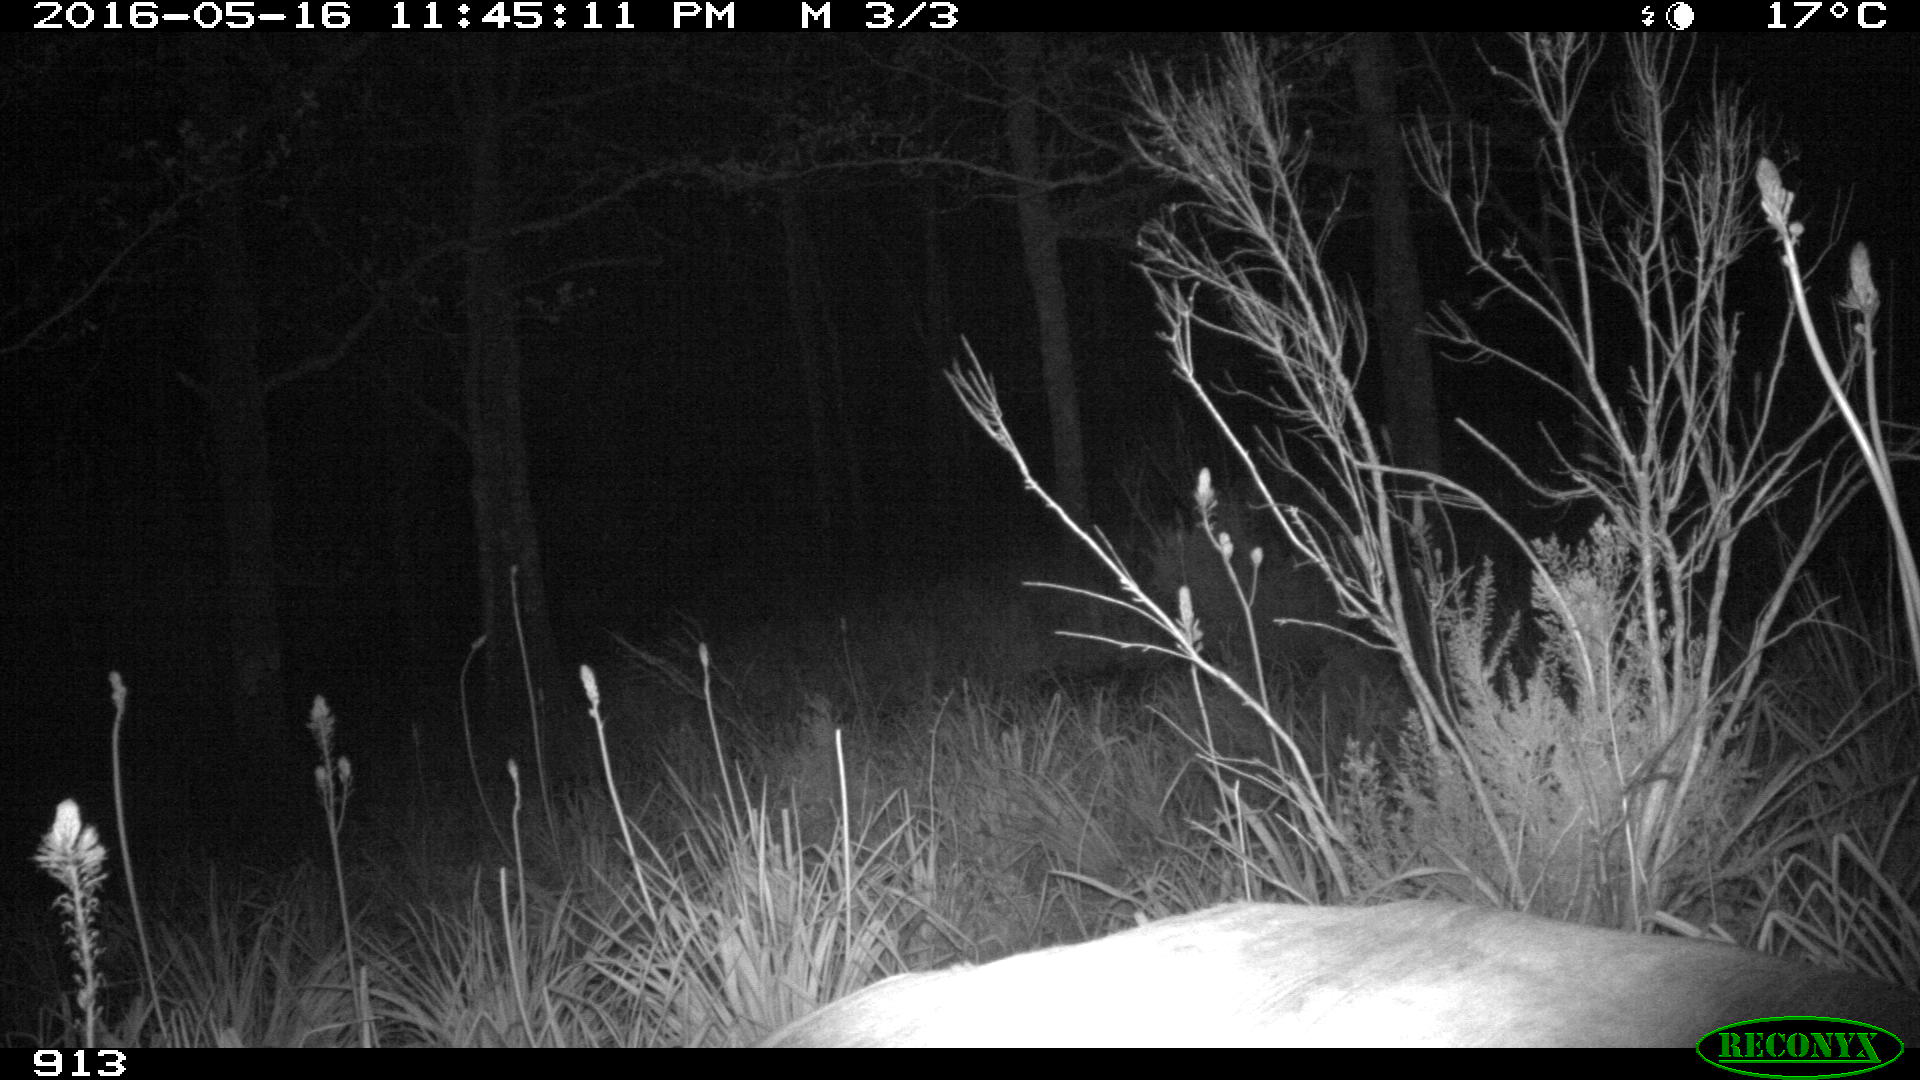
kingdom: Animalia
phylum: Chordata
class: Mammalia
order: Artiodactyla
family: Bovidae
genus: Bos
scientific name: Bos taurus
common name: Domesticated cattle
